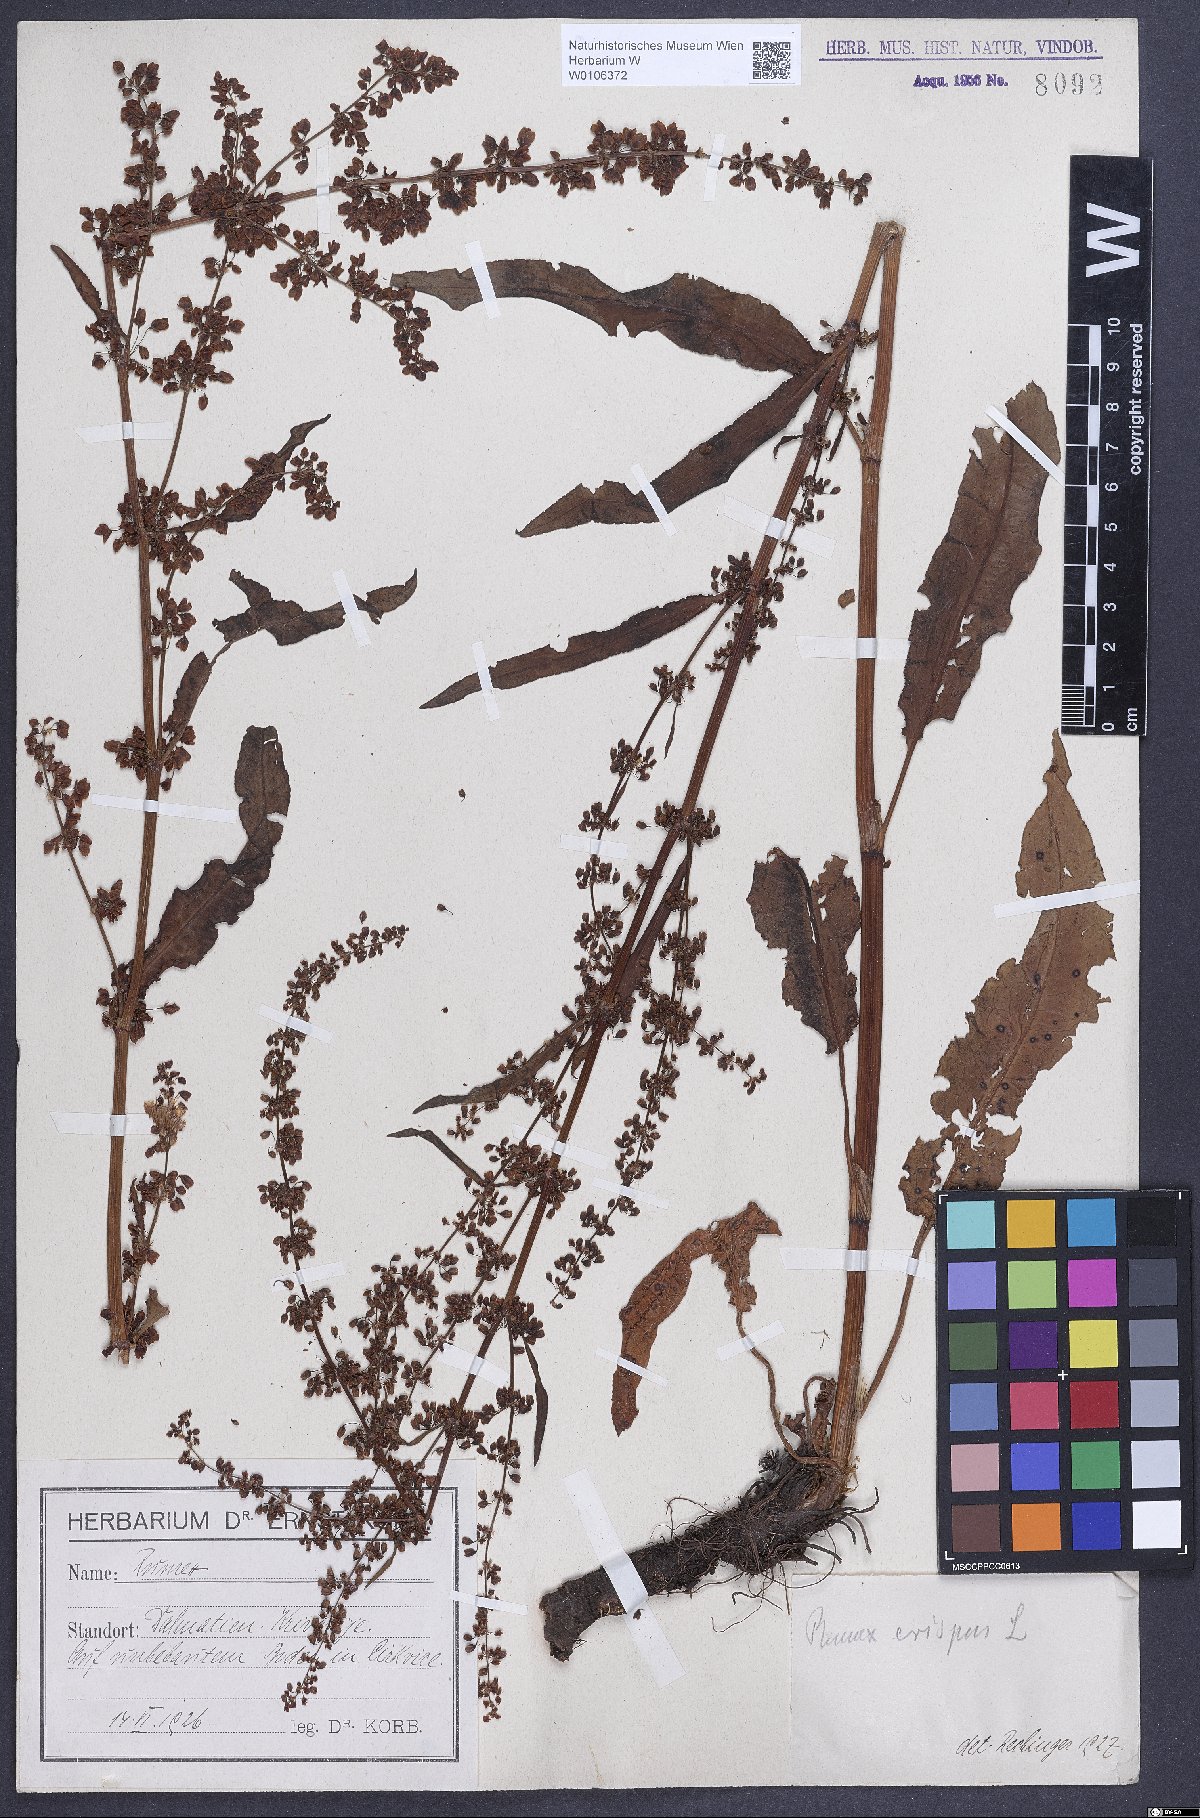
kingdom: Plantae
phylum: Tracheophyta
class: Magnoliopsida
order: Caryophyllales
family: Polygonaceae
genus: Rumex
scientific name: Rumex crispus
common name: Curled dock
